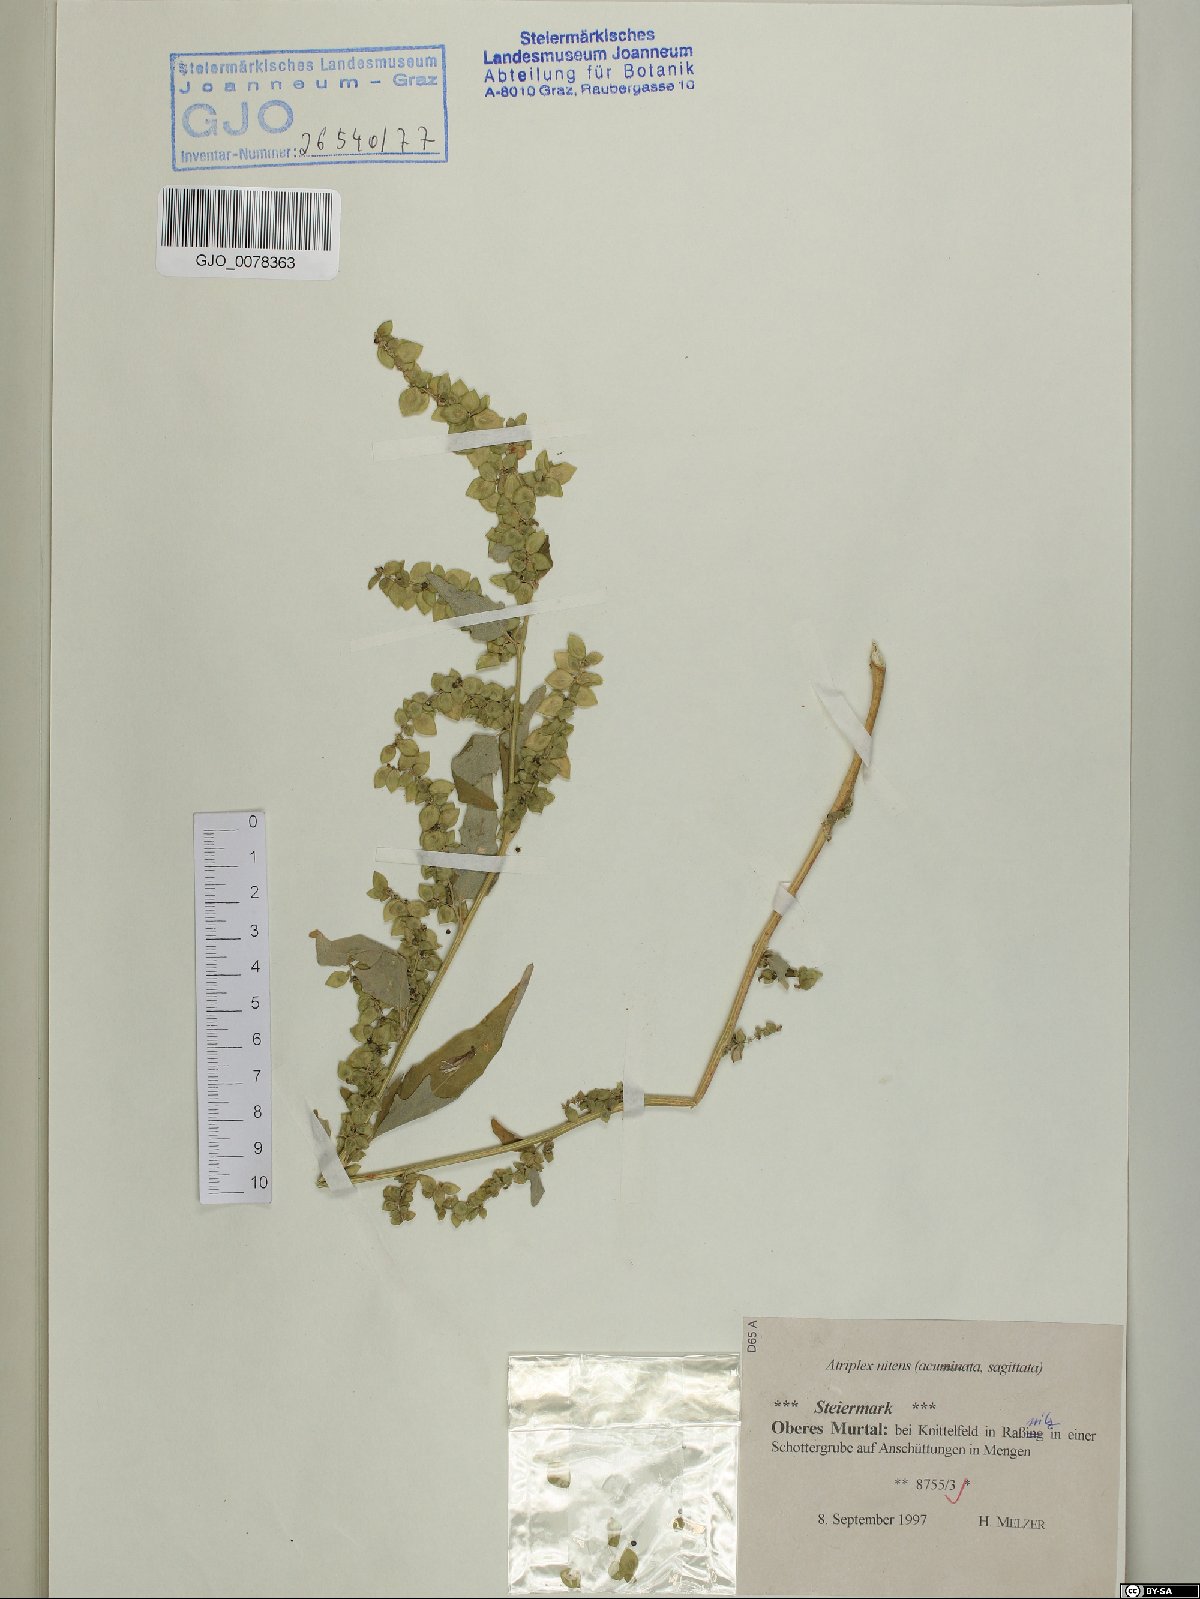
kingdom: Plantae
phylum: Tracheophyta
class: Magnoliopsida
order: Caryophyllales
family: Amaranthaceae
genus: Atriplex
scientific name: Atriplex sagittata
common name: Purple orache
